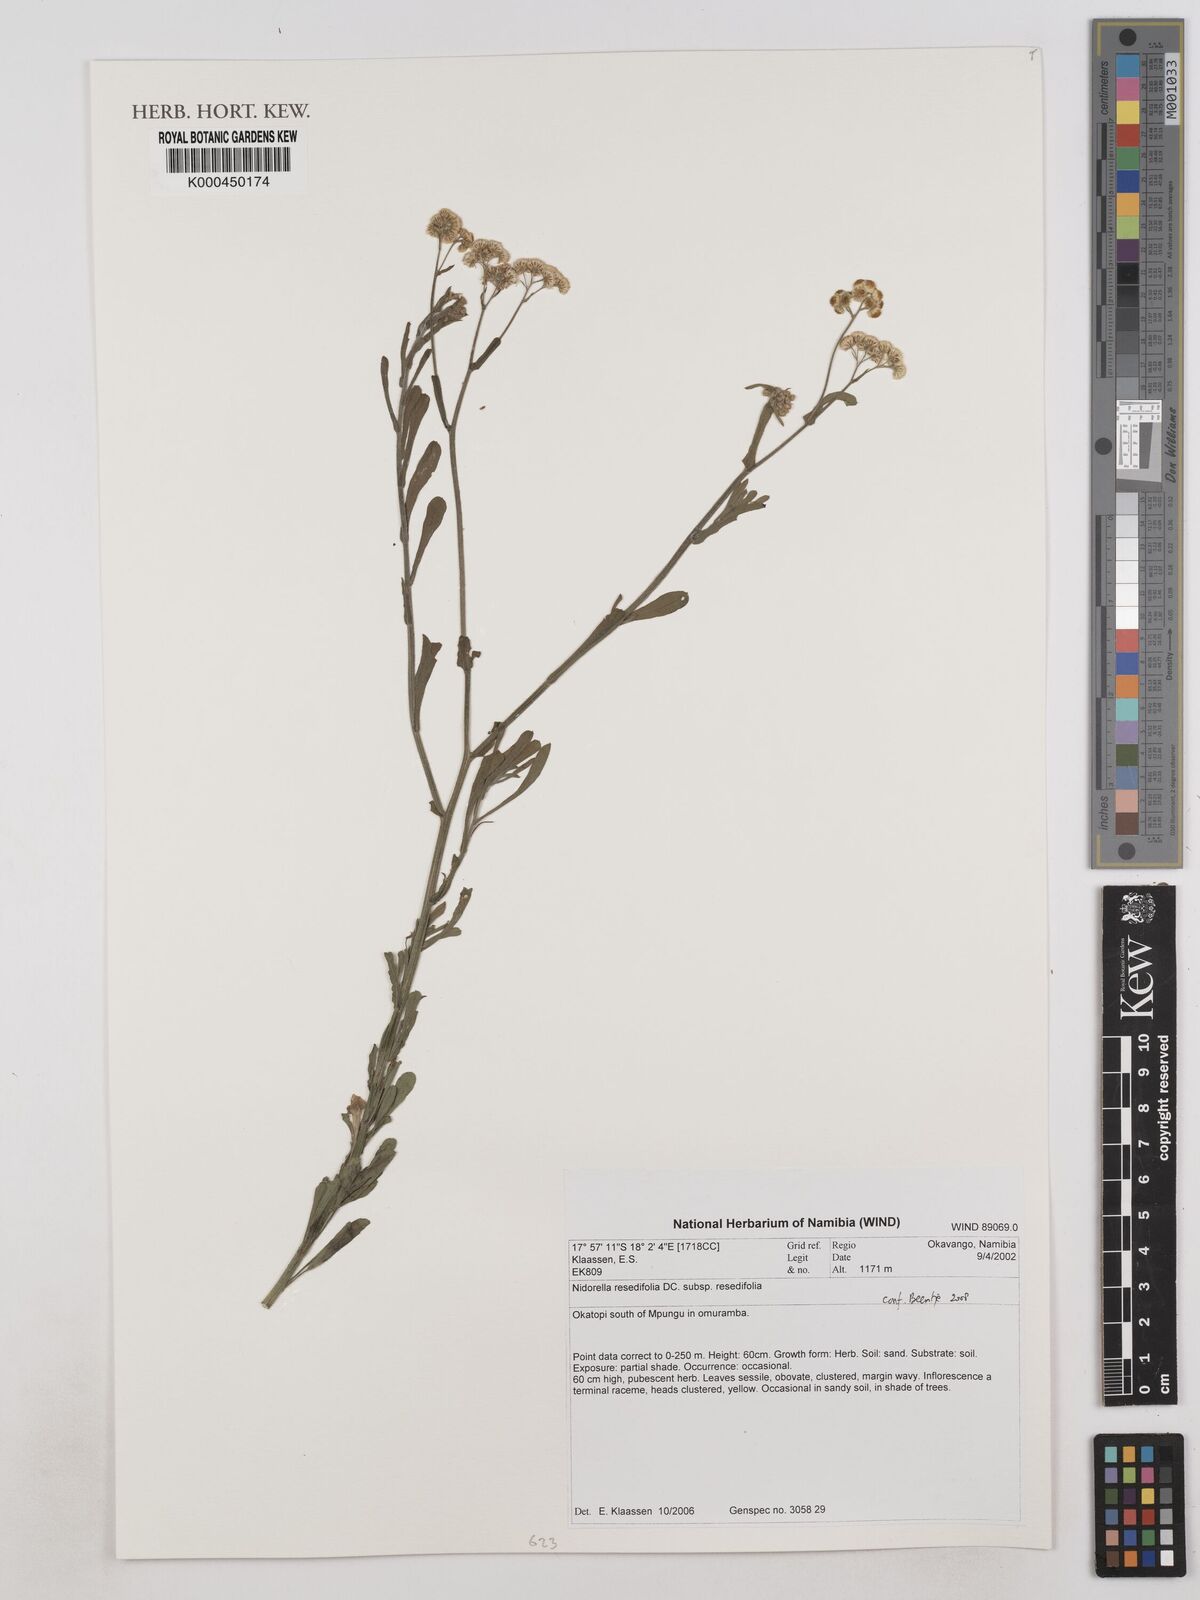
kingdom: Plantae
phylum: Tracheophyta
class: Magnoliopsida
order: Asterales
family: Asteraceae
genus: Nidorella
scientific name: Nidorella resedifolia
